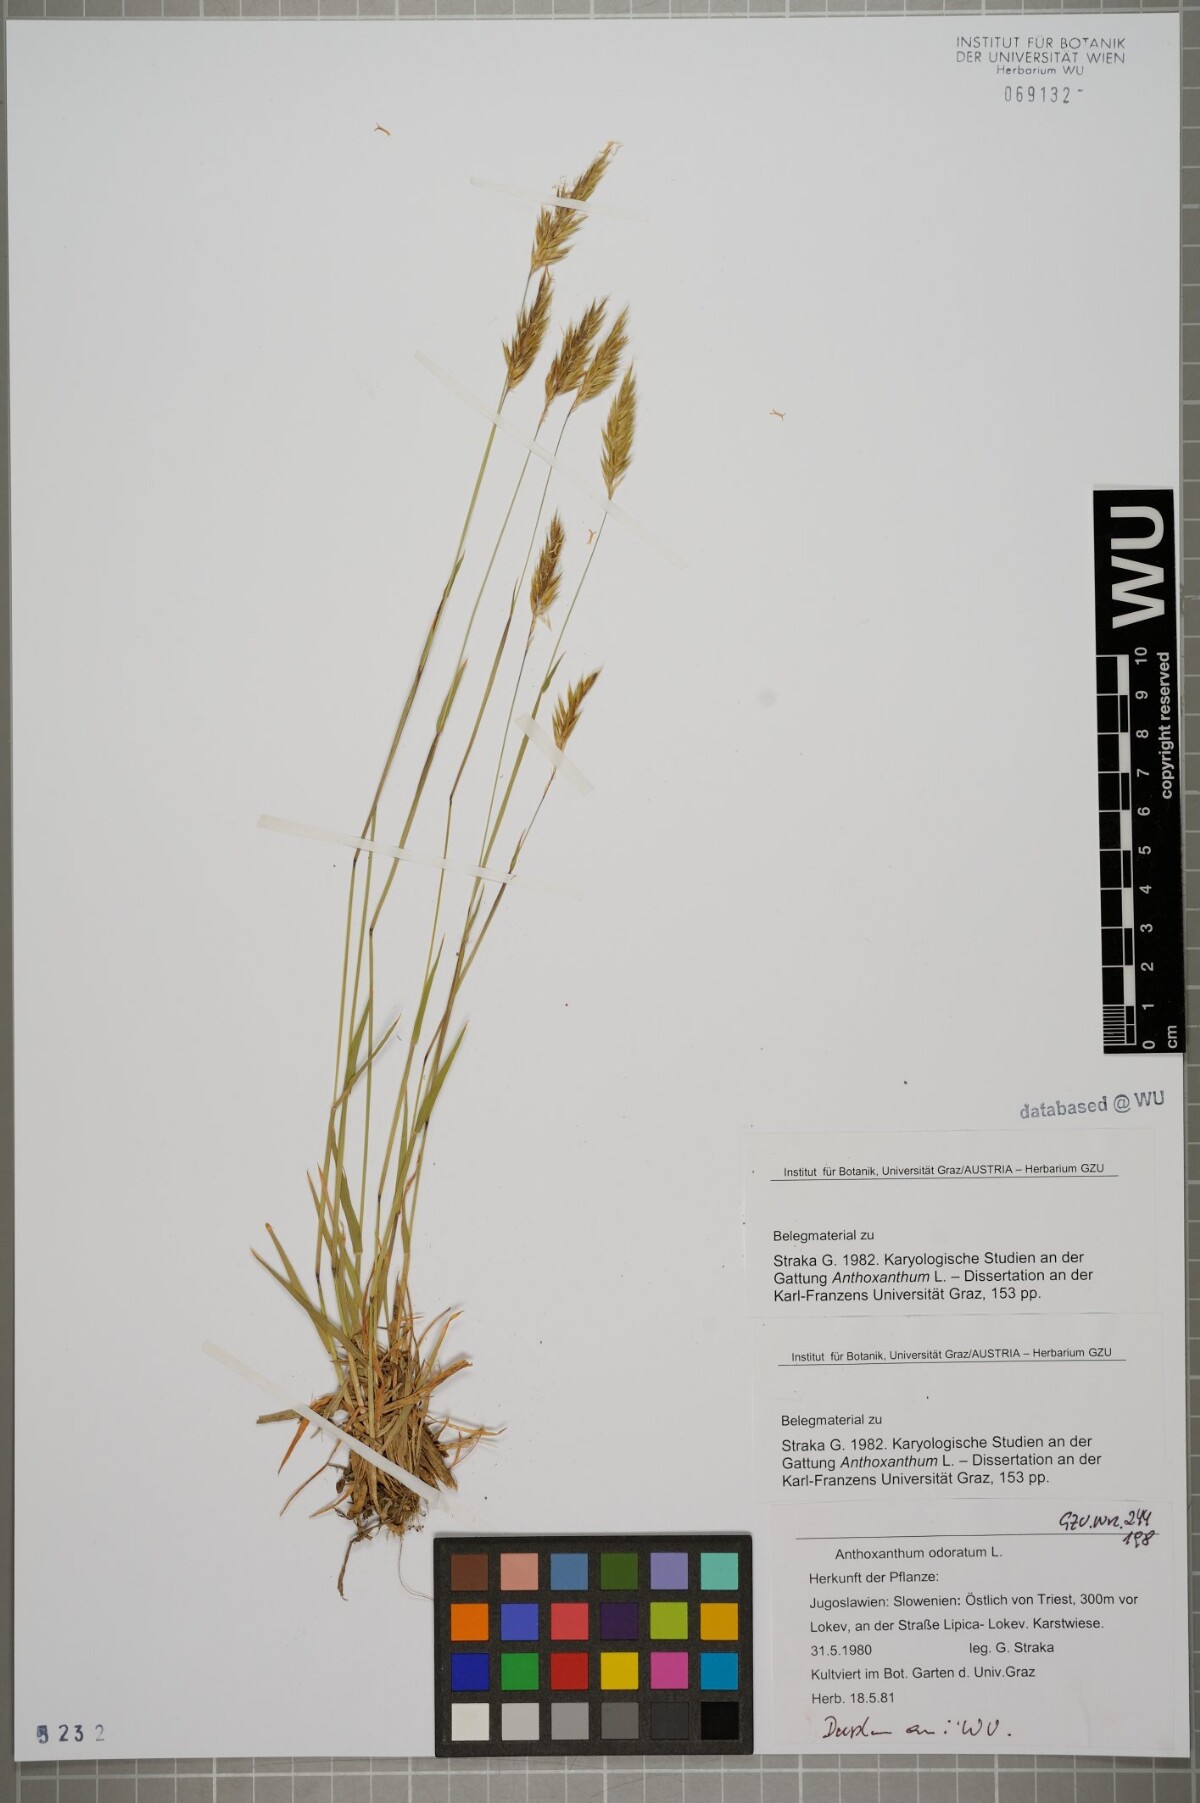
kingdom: Plantae
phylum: Tracheophyta
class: Liliopsida
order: Poales
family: Poaceae
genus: Anthoxanthum
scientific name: Anthoxanthum odoratum
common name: Sweet vernalgrass
